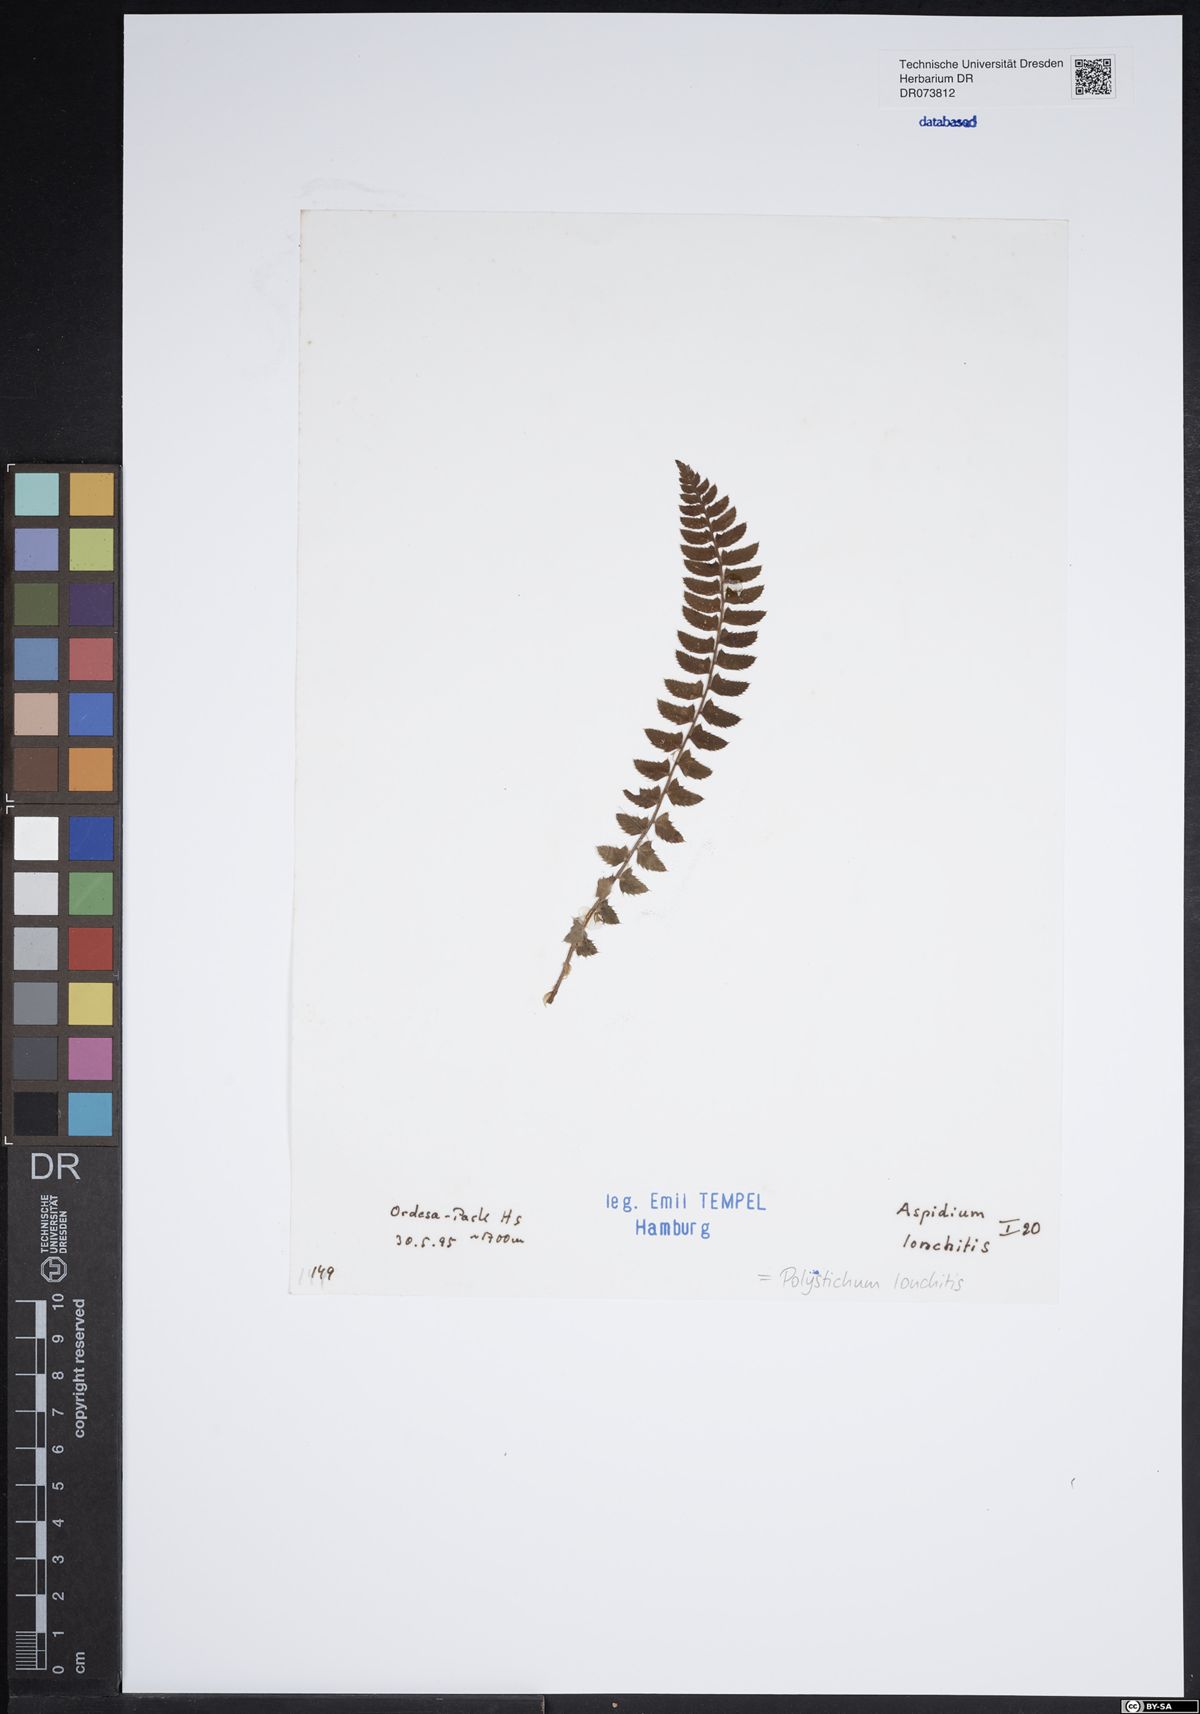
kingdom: Plantae
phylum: Tracheophyta
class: Polypodiopsida
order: Polypodiales
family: Dryopteridaceae
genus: Polystichum
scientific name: Polystichum lonchitis
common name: Holly fern
